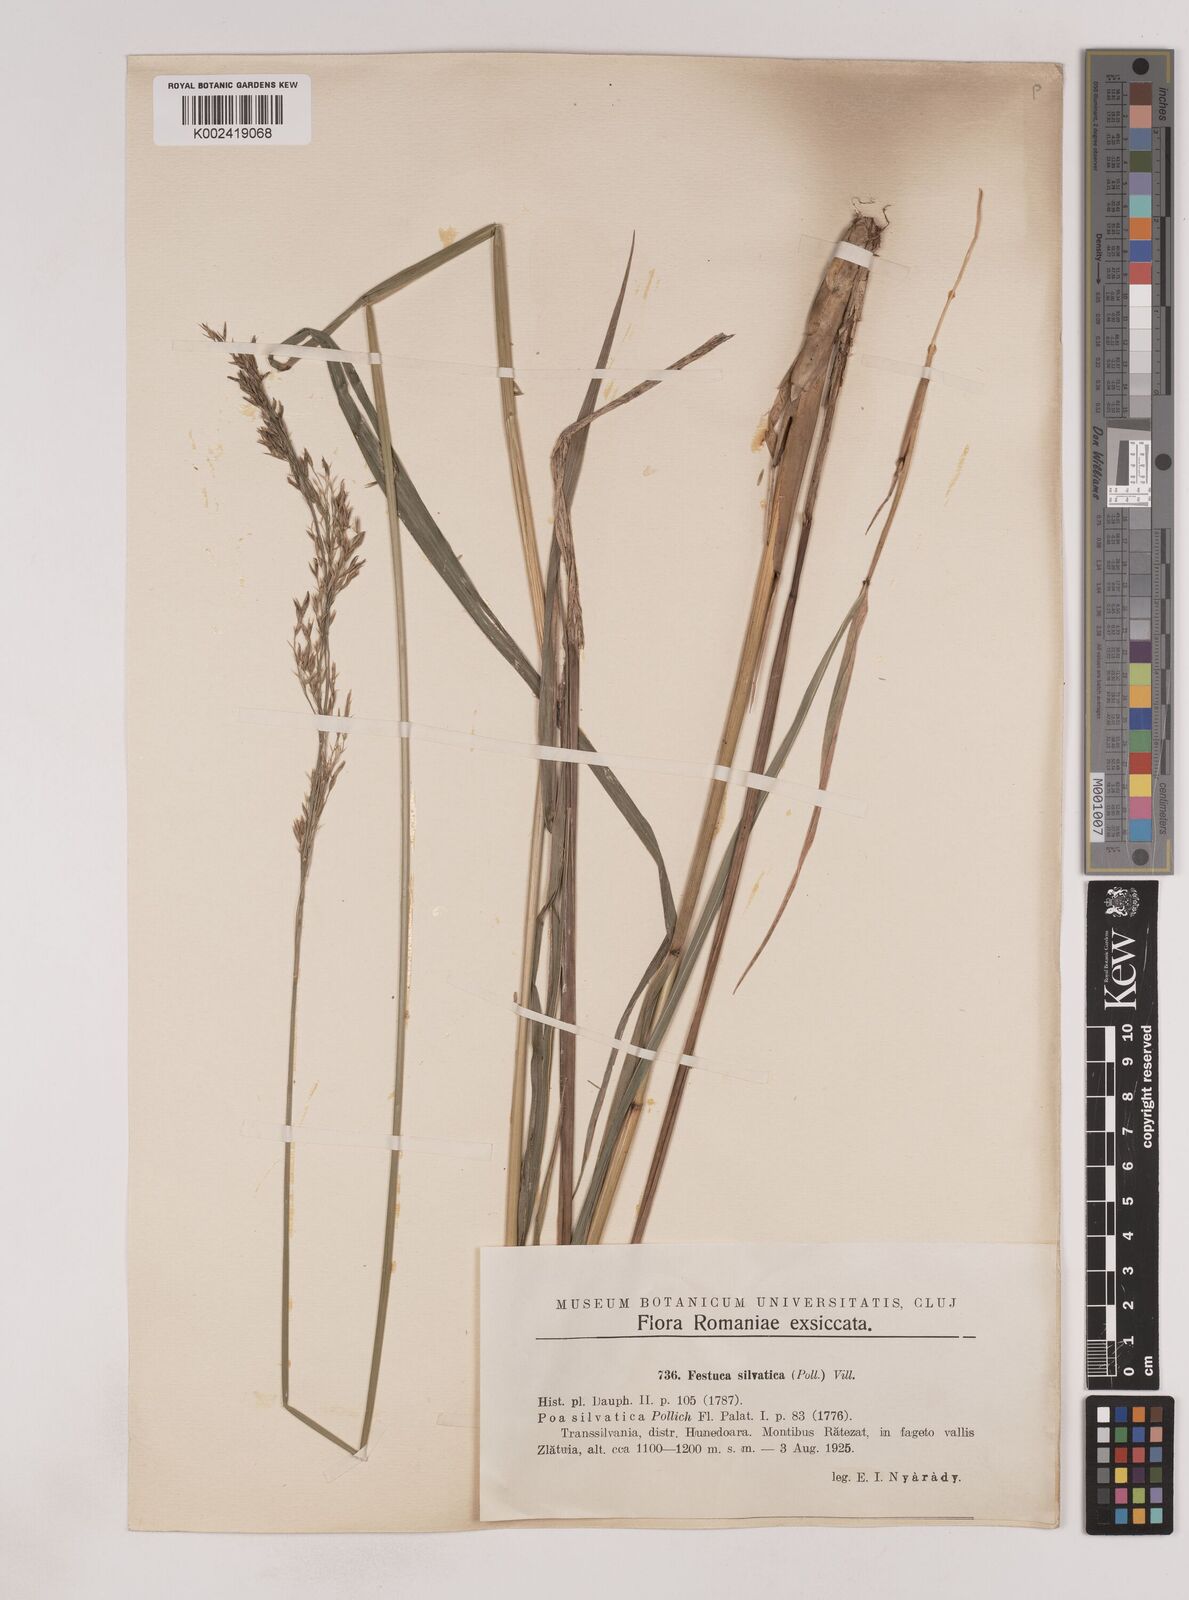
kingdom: Plantae
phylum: Tracheophyta
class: Liliopsida
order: Poales
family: Poaceae
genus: Festuca
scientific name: Festuca drymeja
